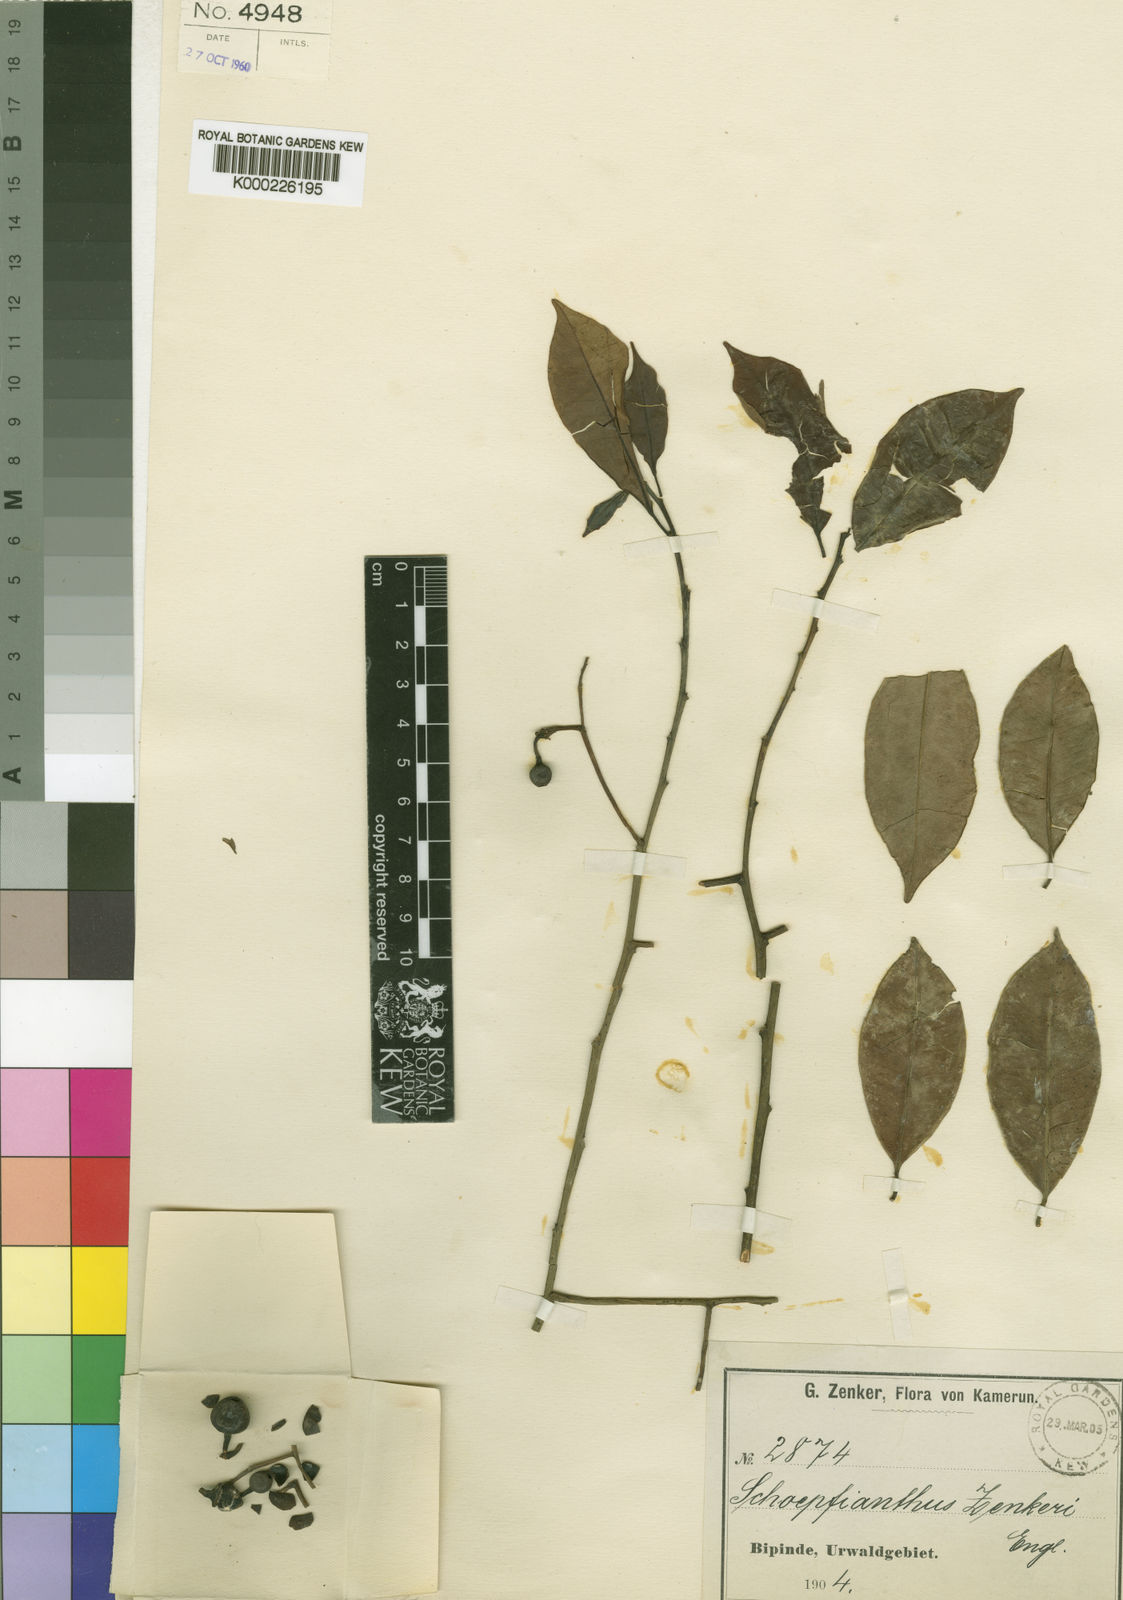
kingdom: Plantae
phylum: Tracheophyta
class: Magnoliopsida
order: Santalales
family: Aptandraceae
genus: Ongokea
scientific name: Ongokea gore
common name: Boleko-nut
